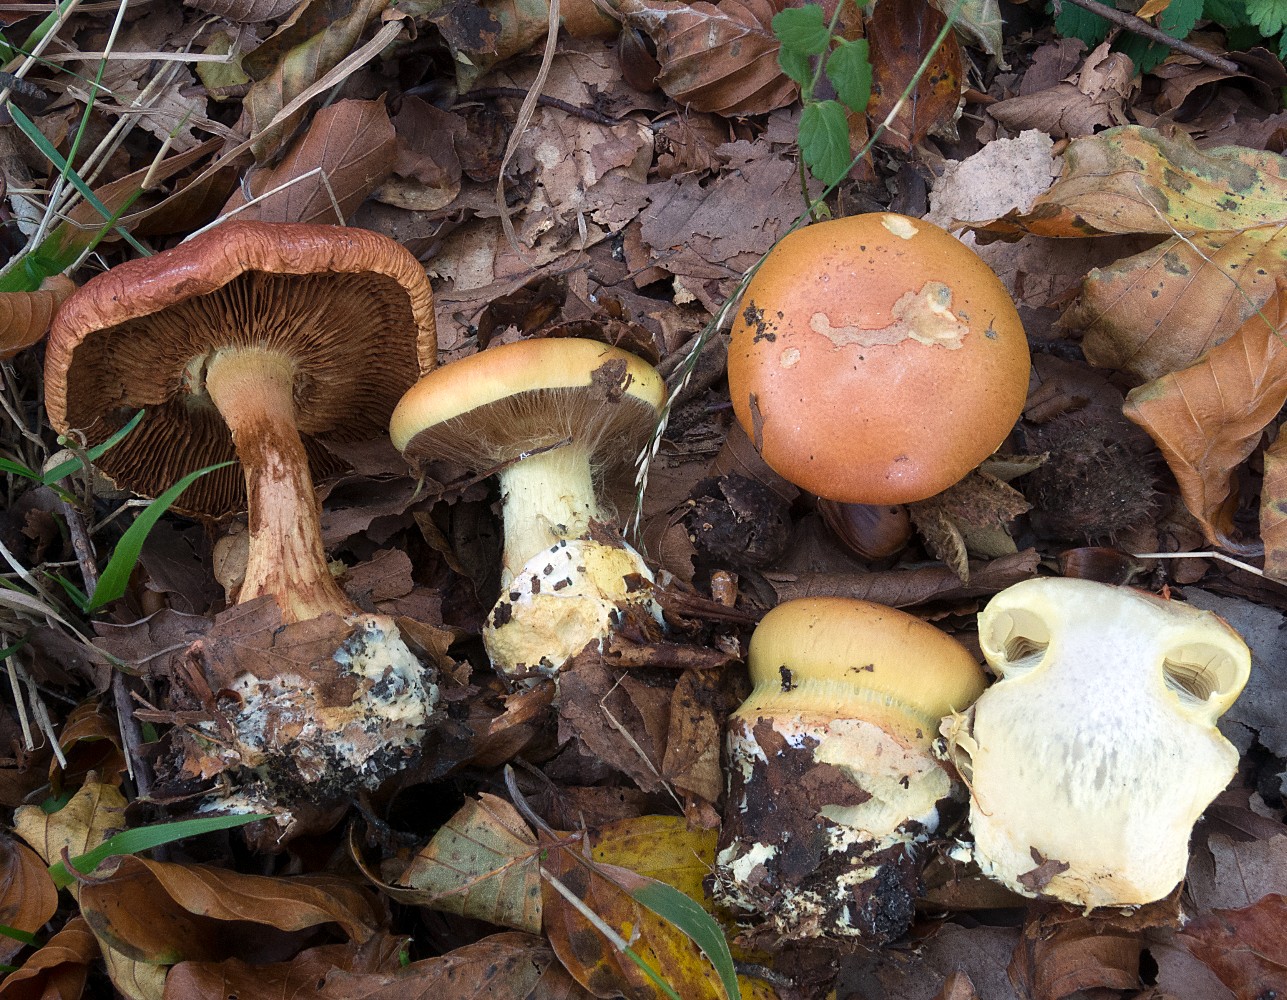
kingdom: Fungi
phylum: Basidiomycota
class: Agaricomycetes
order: Agaricales
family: Cortinariaceae
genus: Calonarius
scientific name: Calonarius elegantissimus
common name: orangegylden slørhat
